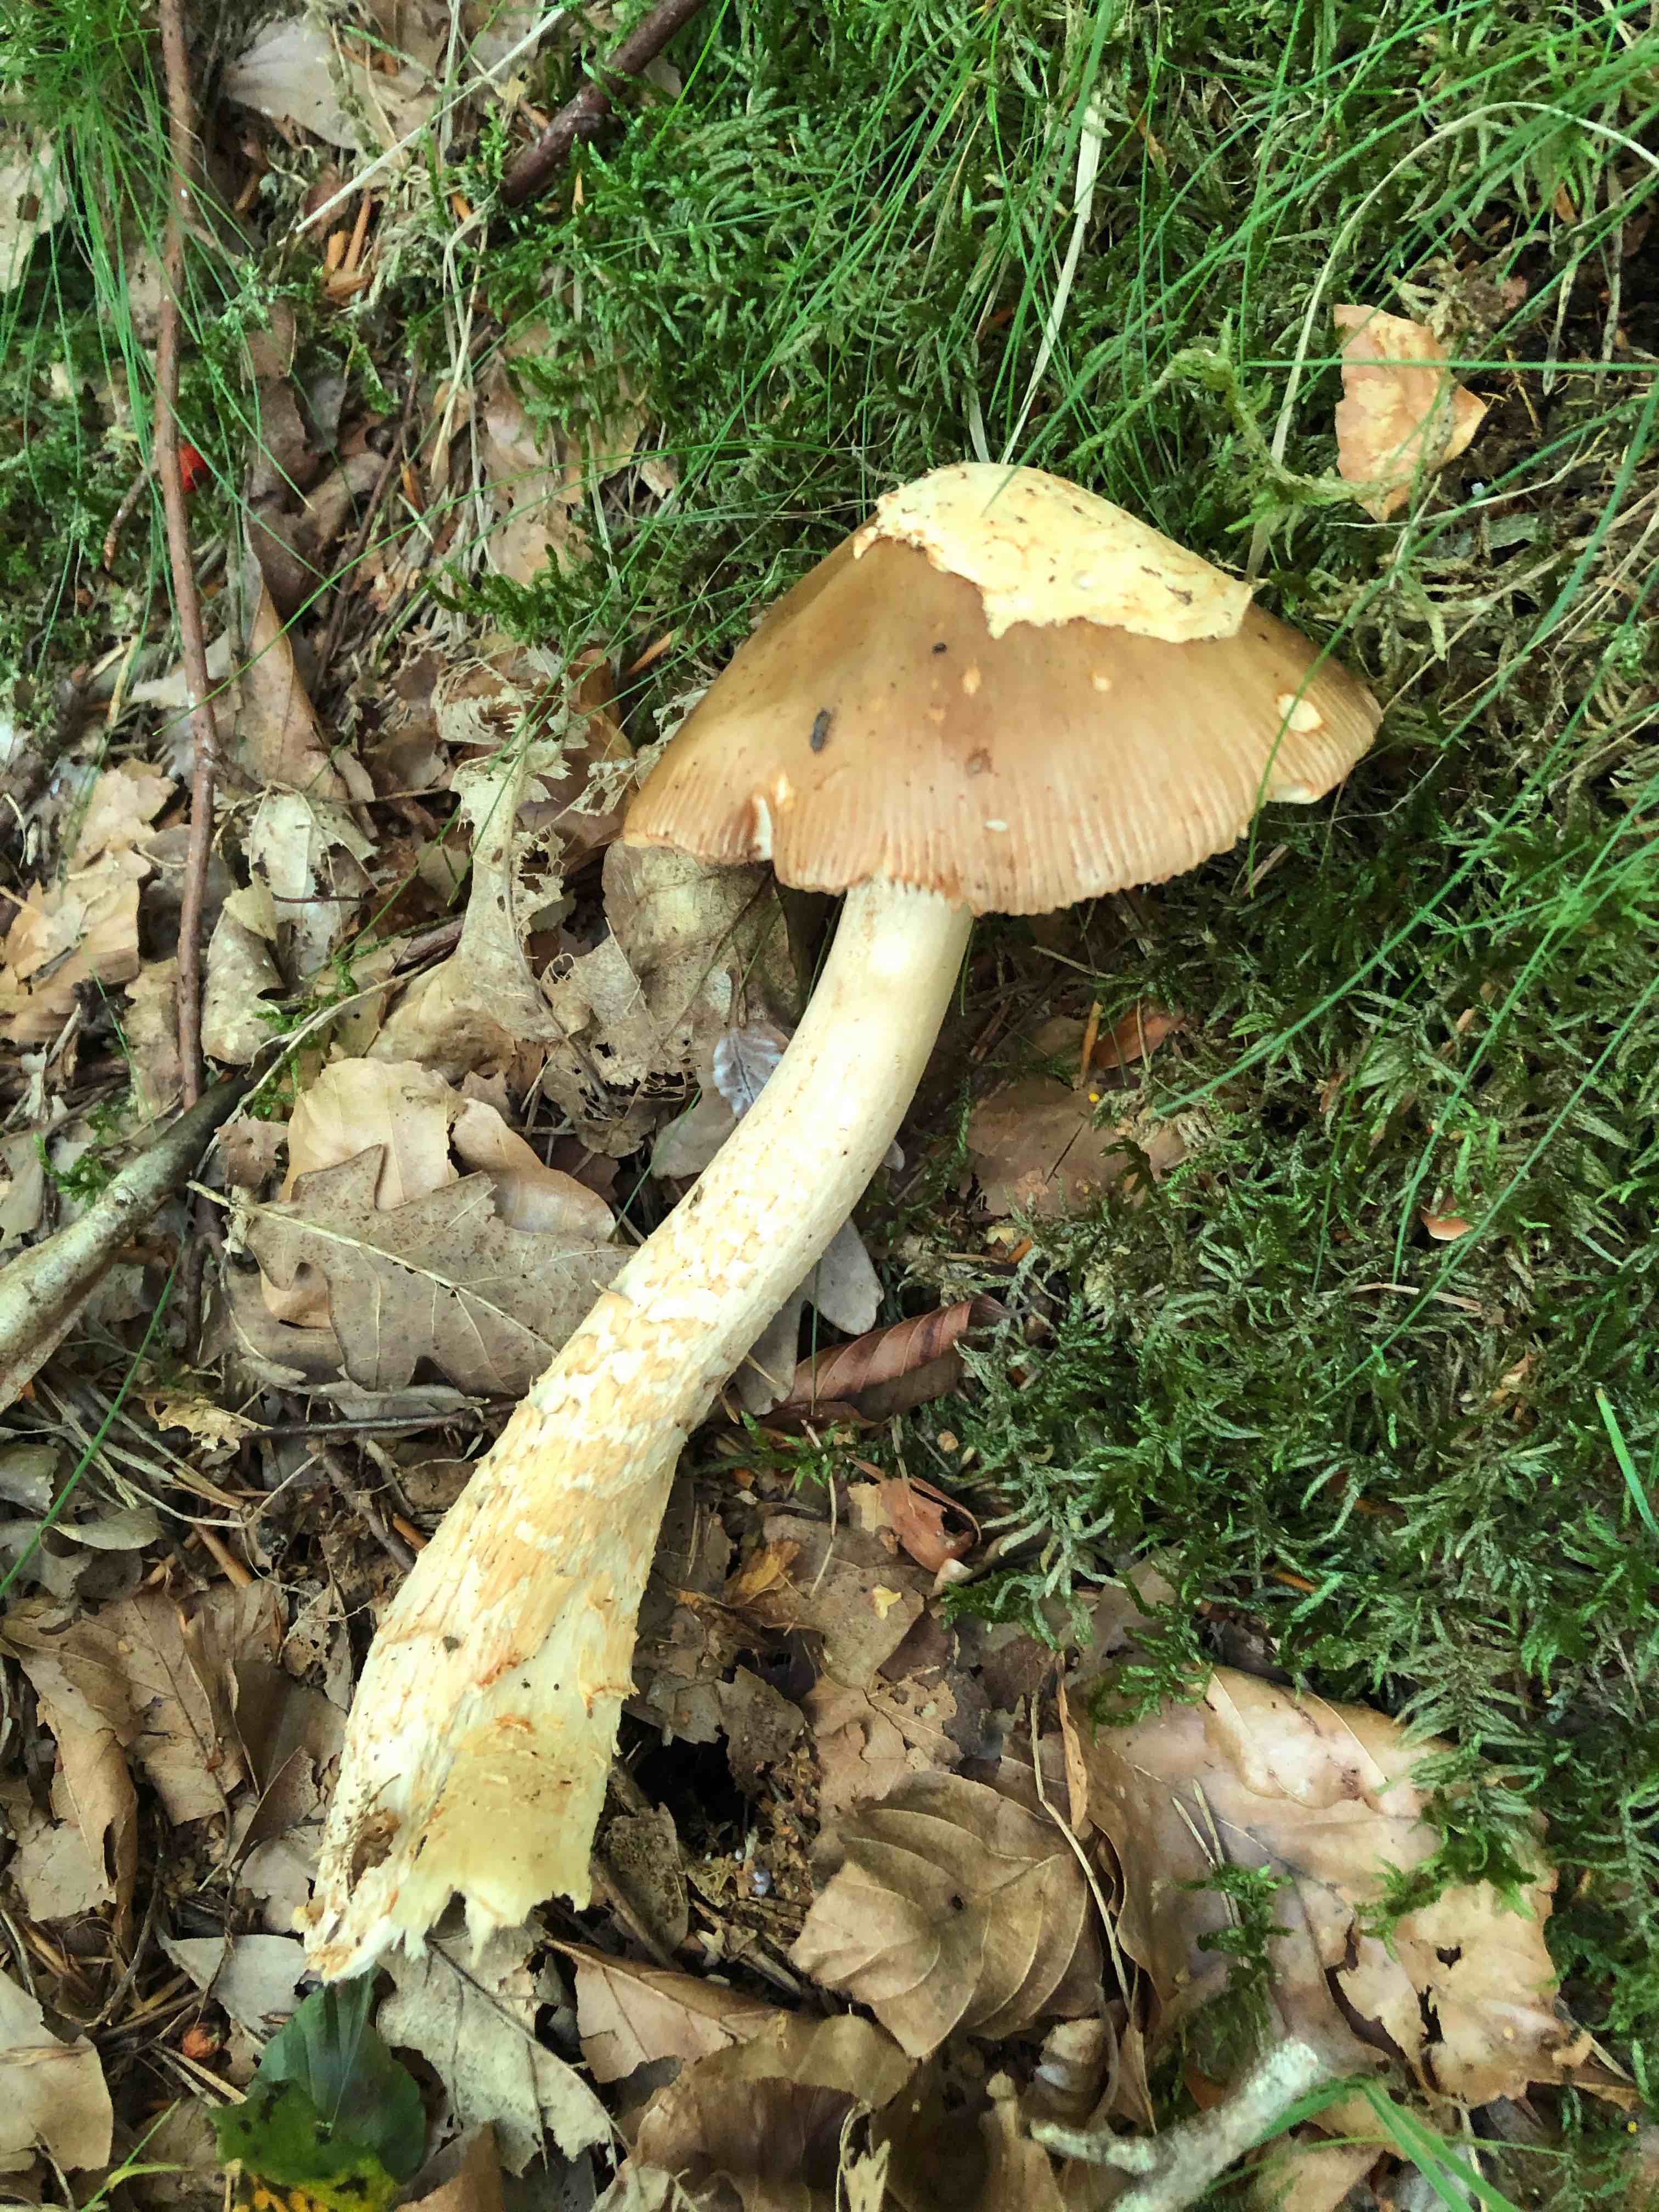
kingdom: Fungi
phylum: Basidiomycota
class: Agaricomycetes
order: Agaricales
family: Amanitaceae
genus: Amanita
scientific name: Amanita
